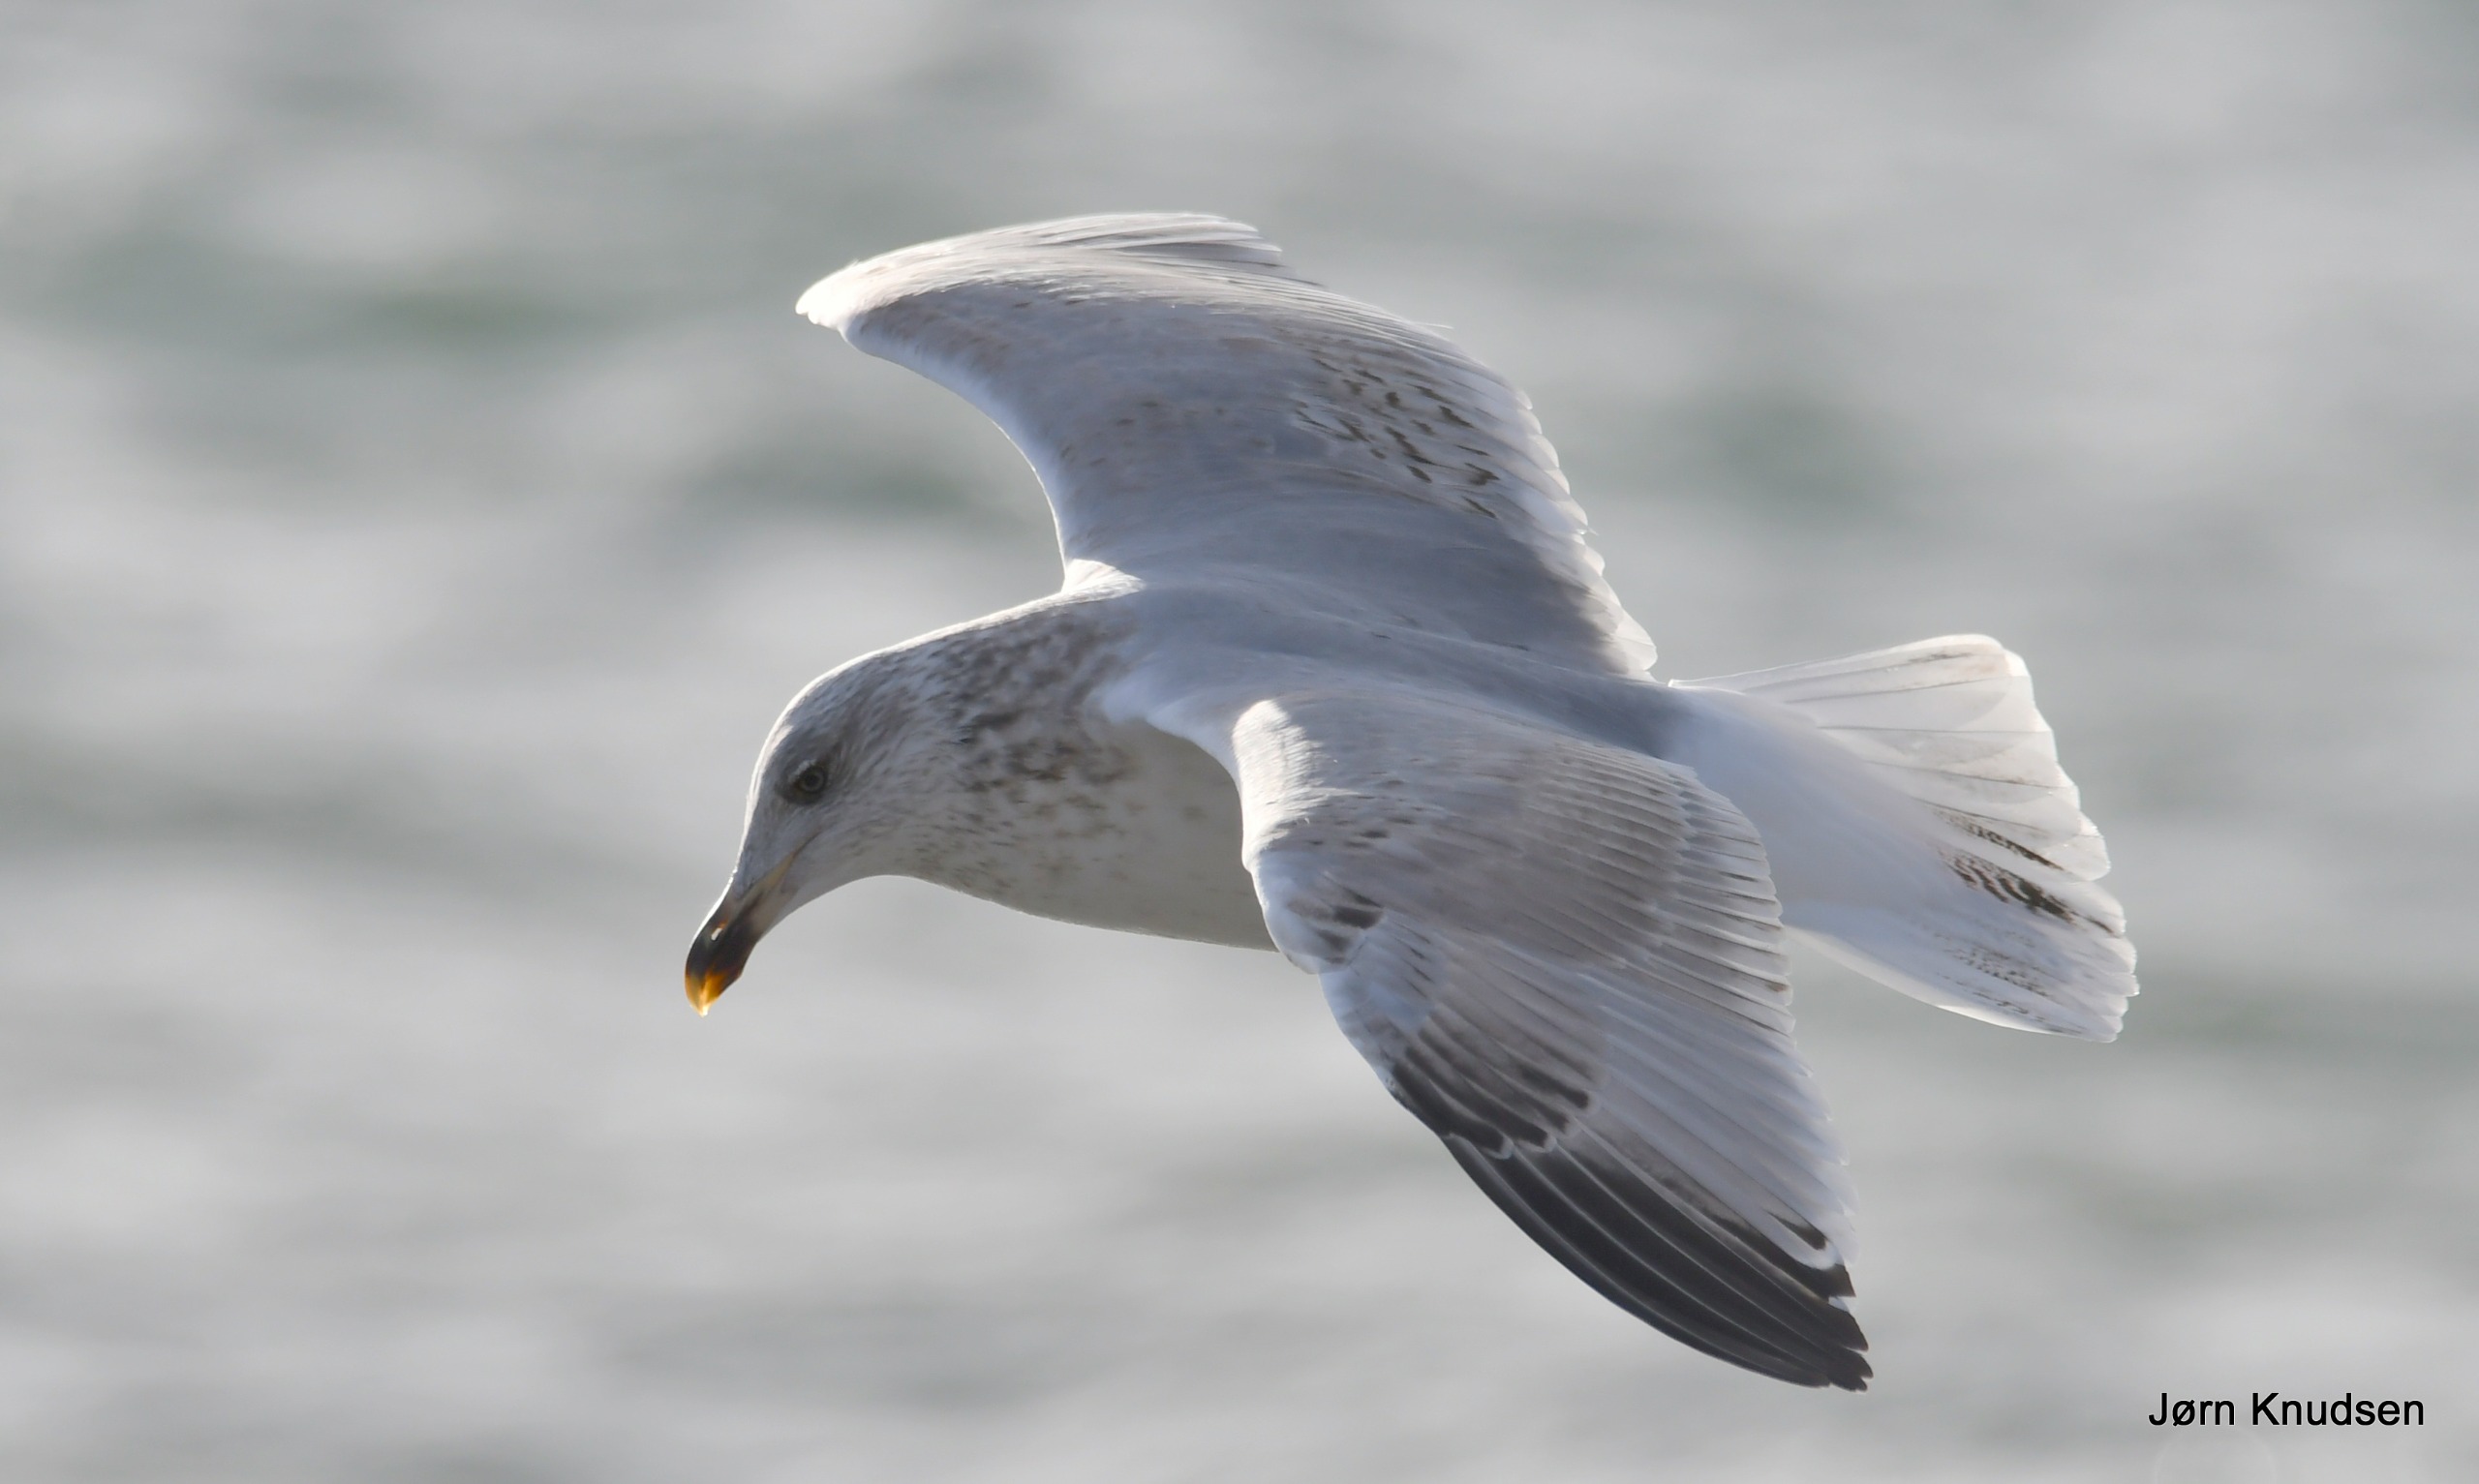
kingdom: Animalia
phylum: Chordata
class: Aves
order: Charadriiformes
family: Laridae
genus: Larus
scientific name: Larus argentatus
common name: Sølvmåge
